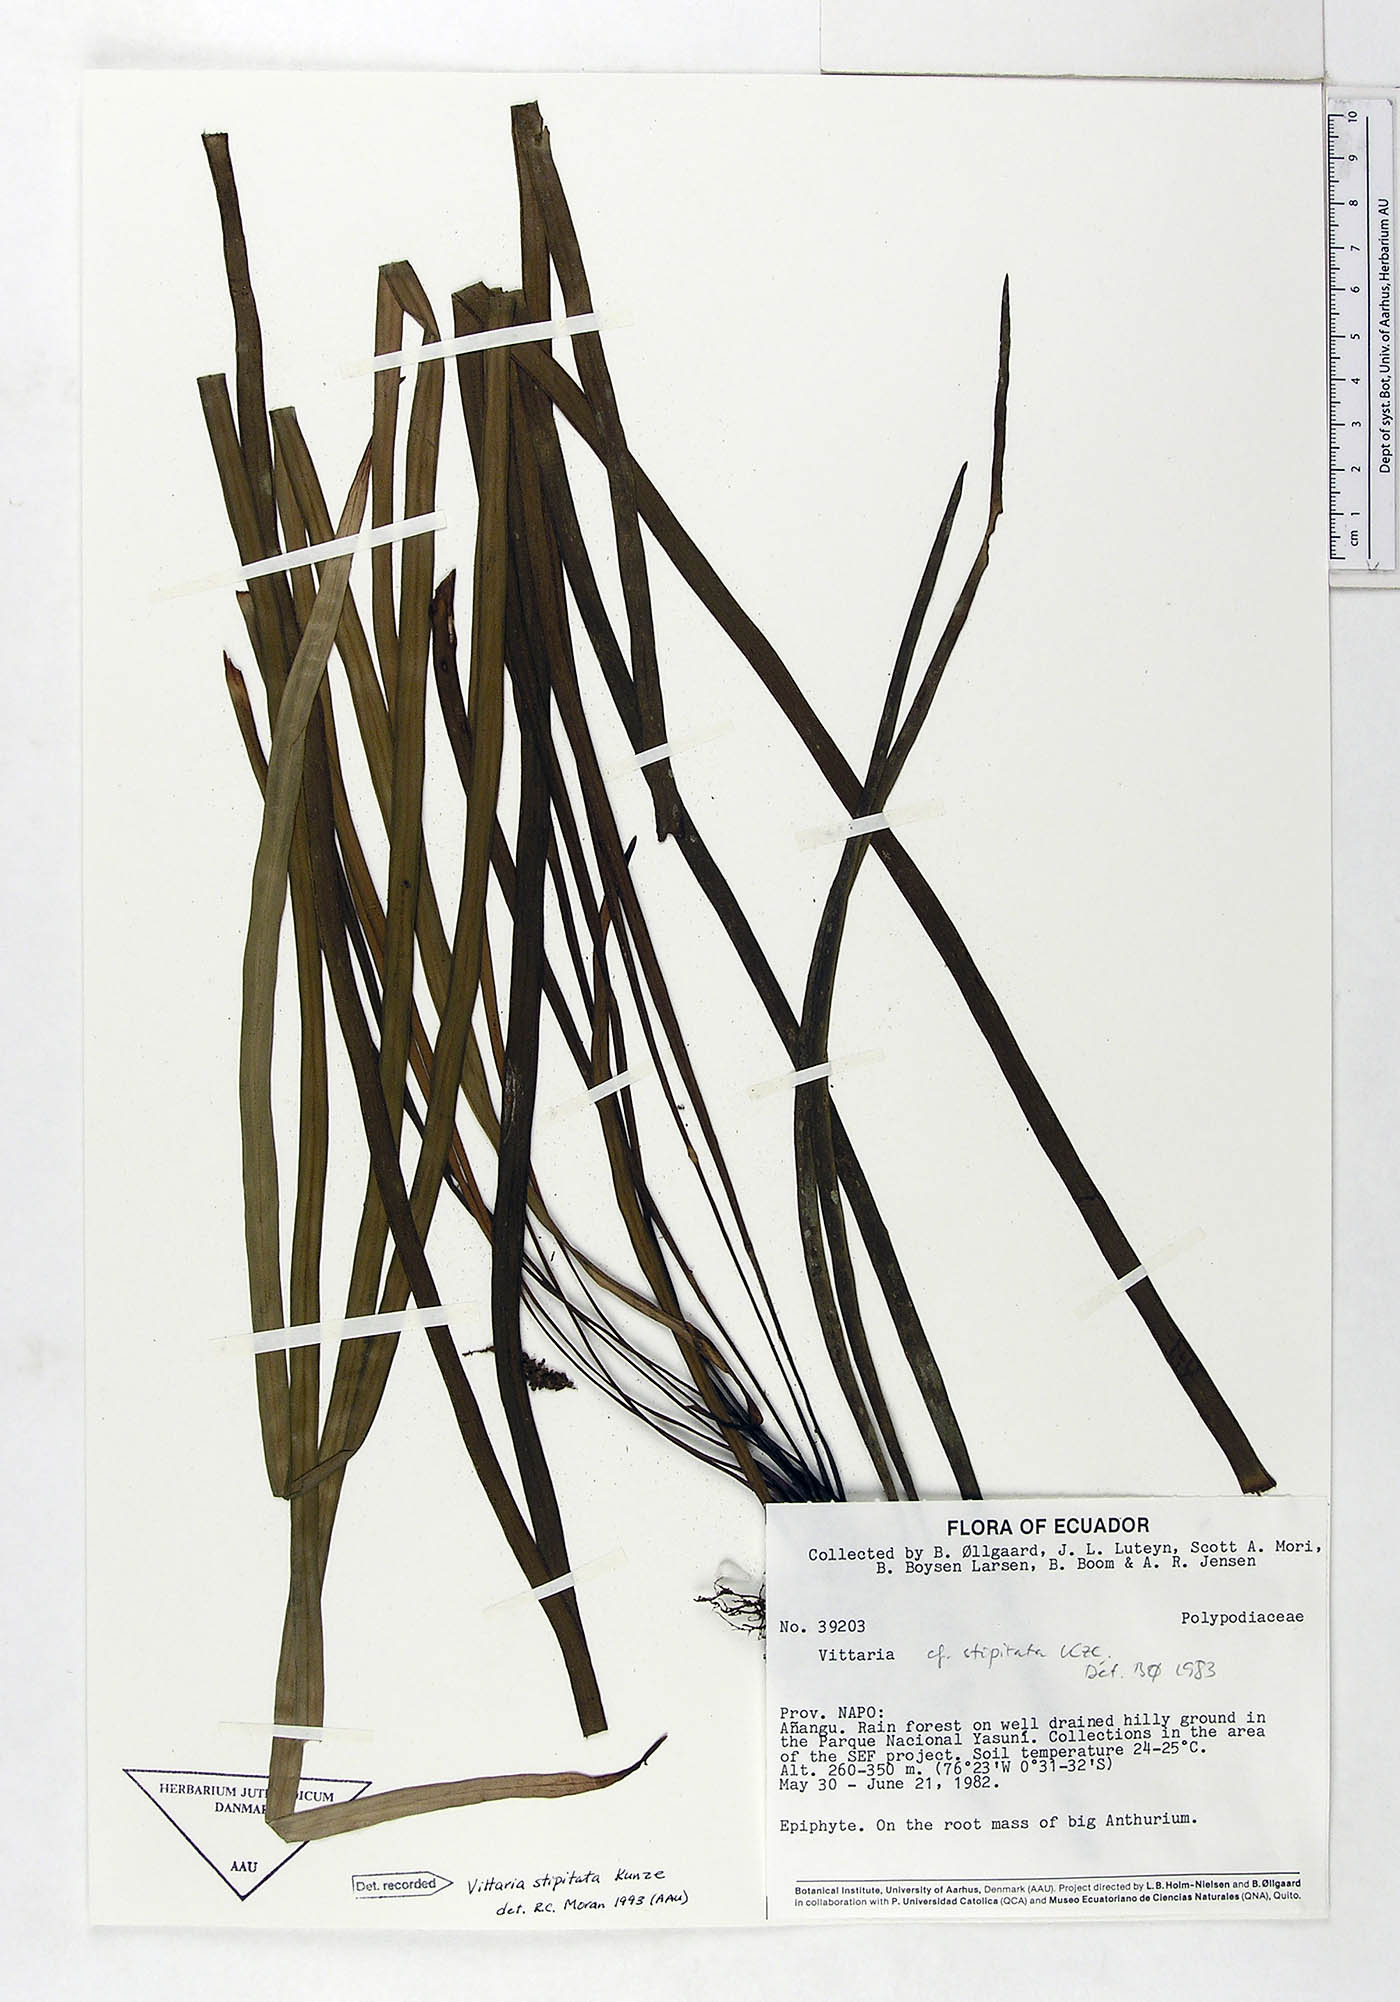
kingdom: Plantae
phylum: Tracheophyta
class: Polypodiopsida
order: Polypodiales
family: Pteridaceae
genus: Radiovittaria
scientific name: Radiovittaria stipitata
